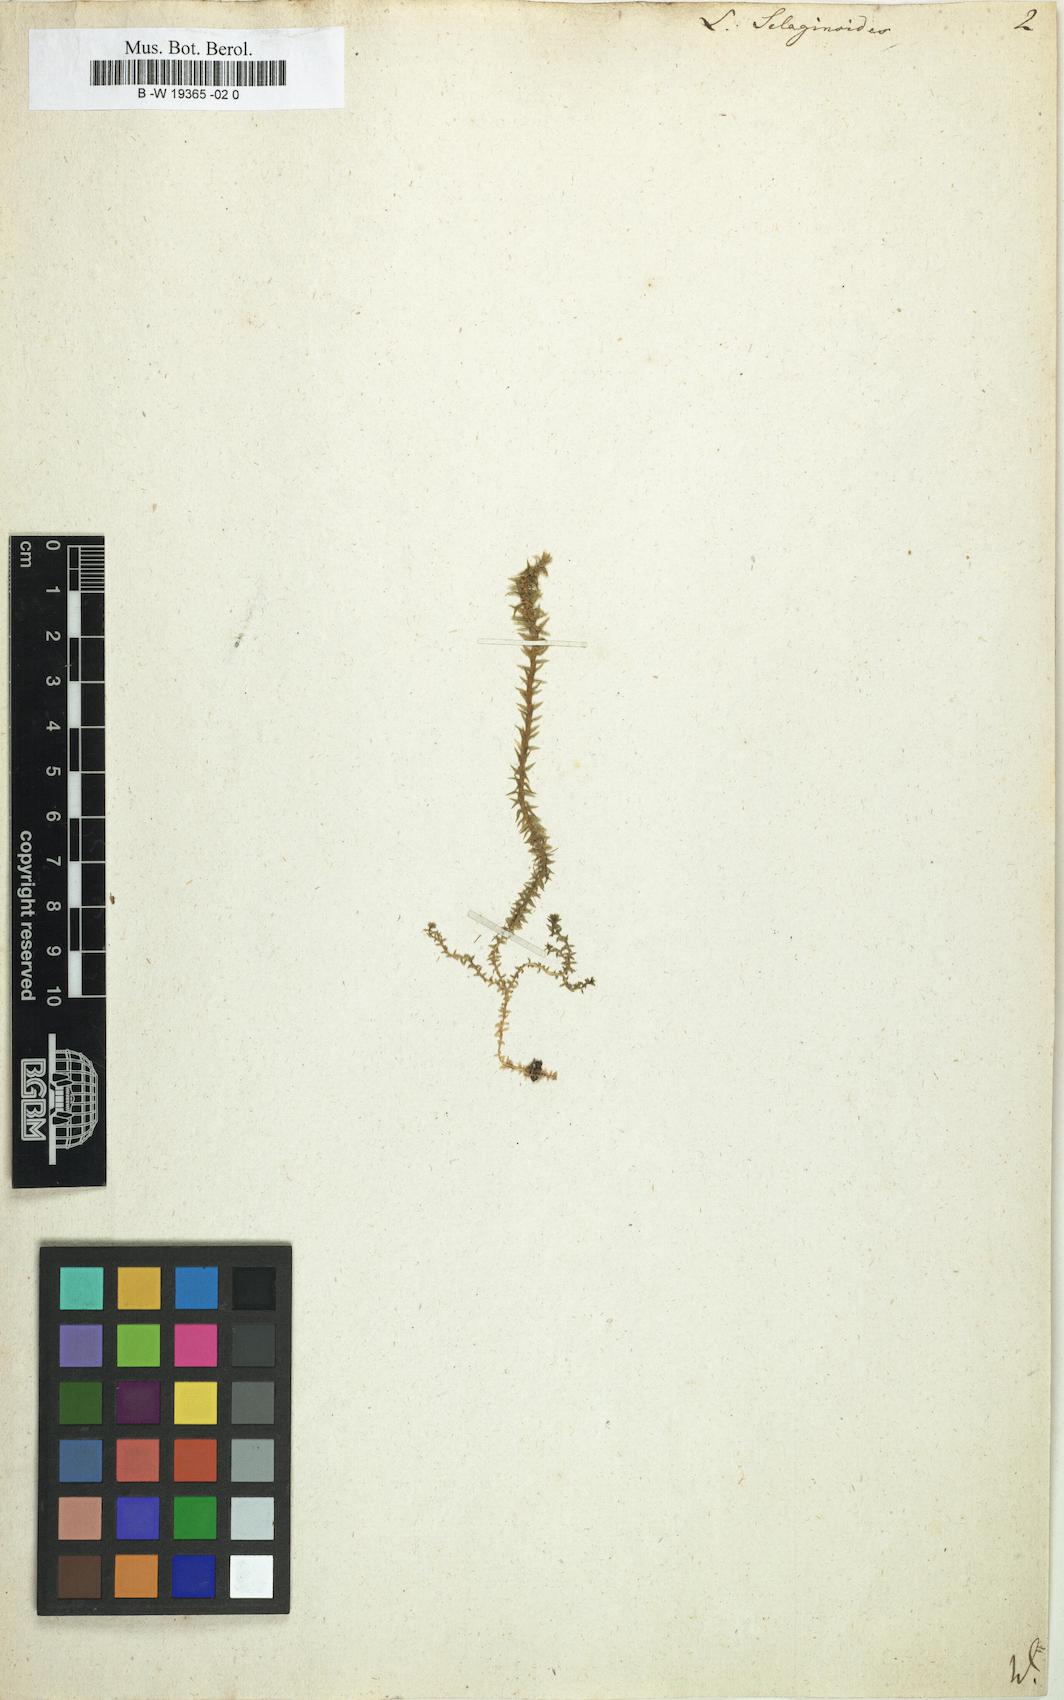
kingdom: Plantae
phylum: Tracheophyta
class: Lycopodiopsida
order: Selaginellales
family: Selaginellaceae
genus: Selaginella
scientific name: Selaginella selaginoides
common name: Prickly mountain-moss
